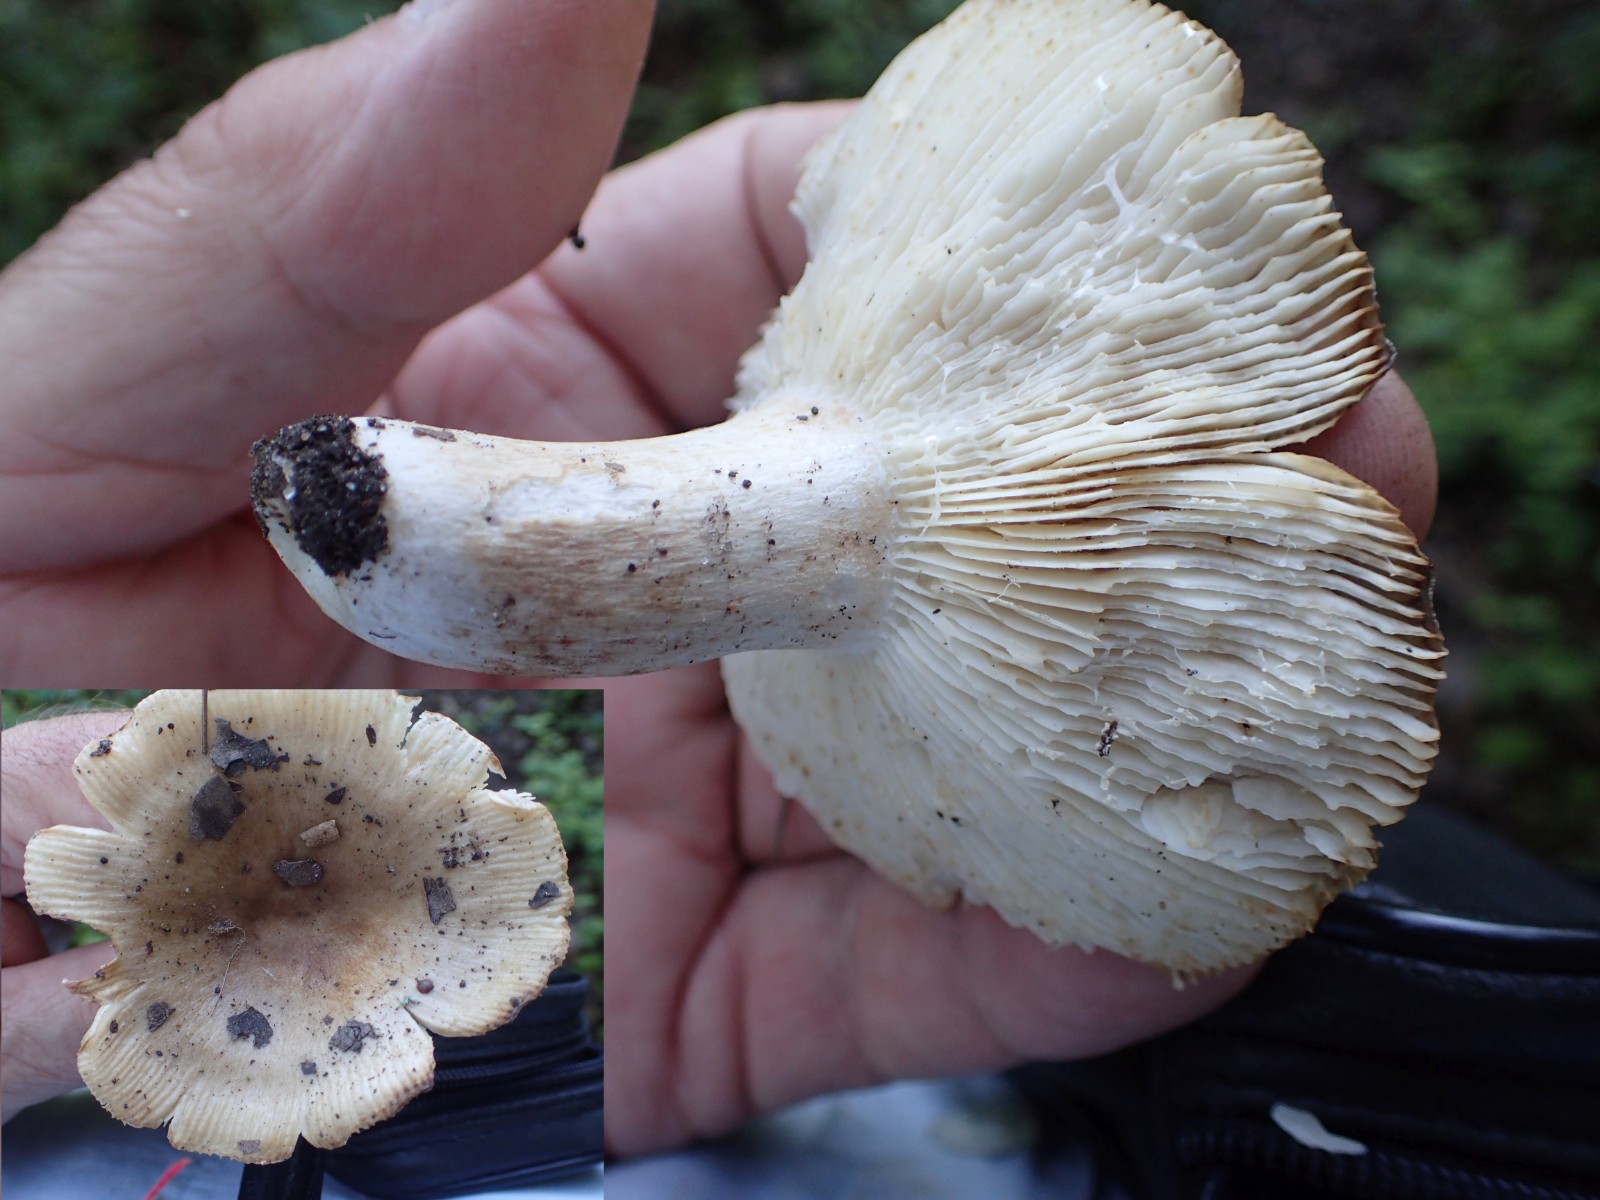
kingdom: Fungi
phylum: Basidiomycota
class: Agaricomycetes
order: Russulales
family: Russulaceae
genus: Russula
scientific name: Russula recondita
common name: mild kam-skørhat
